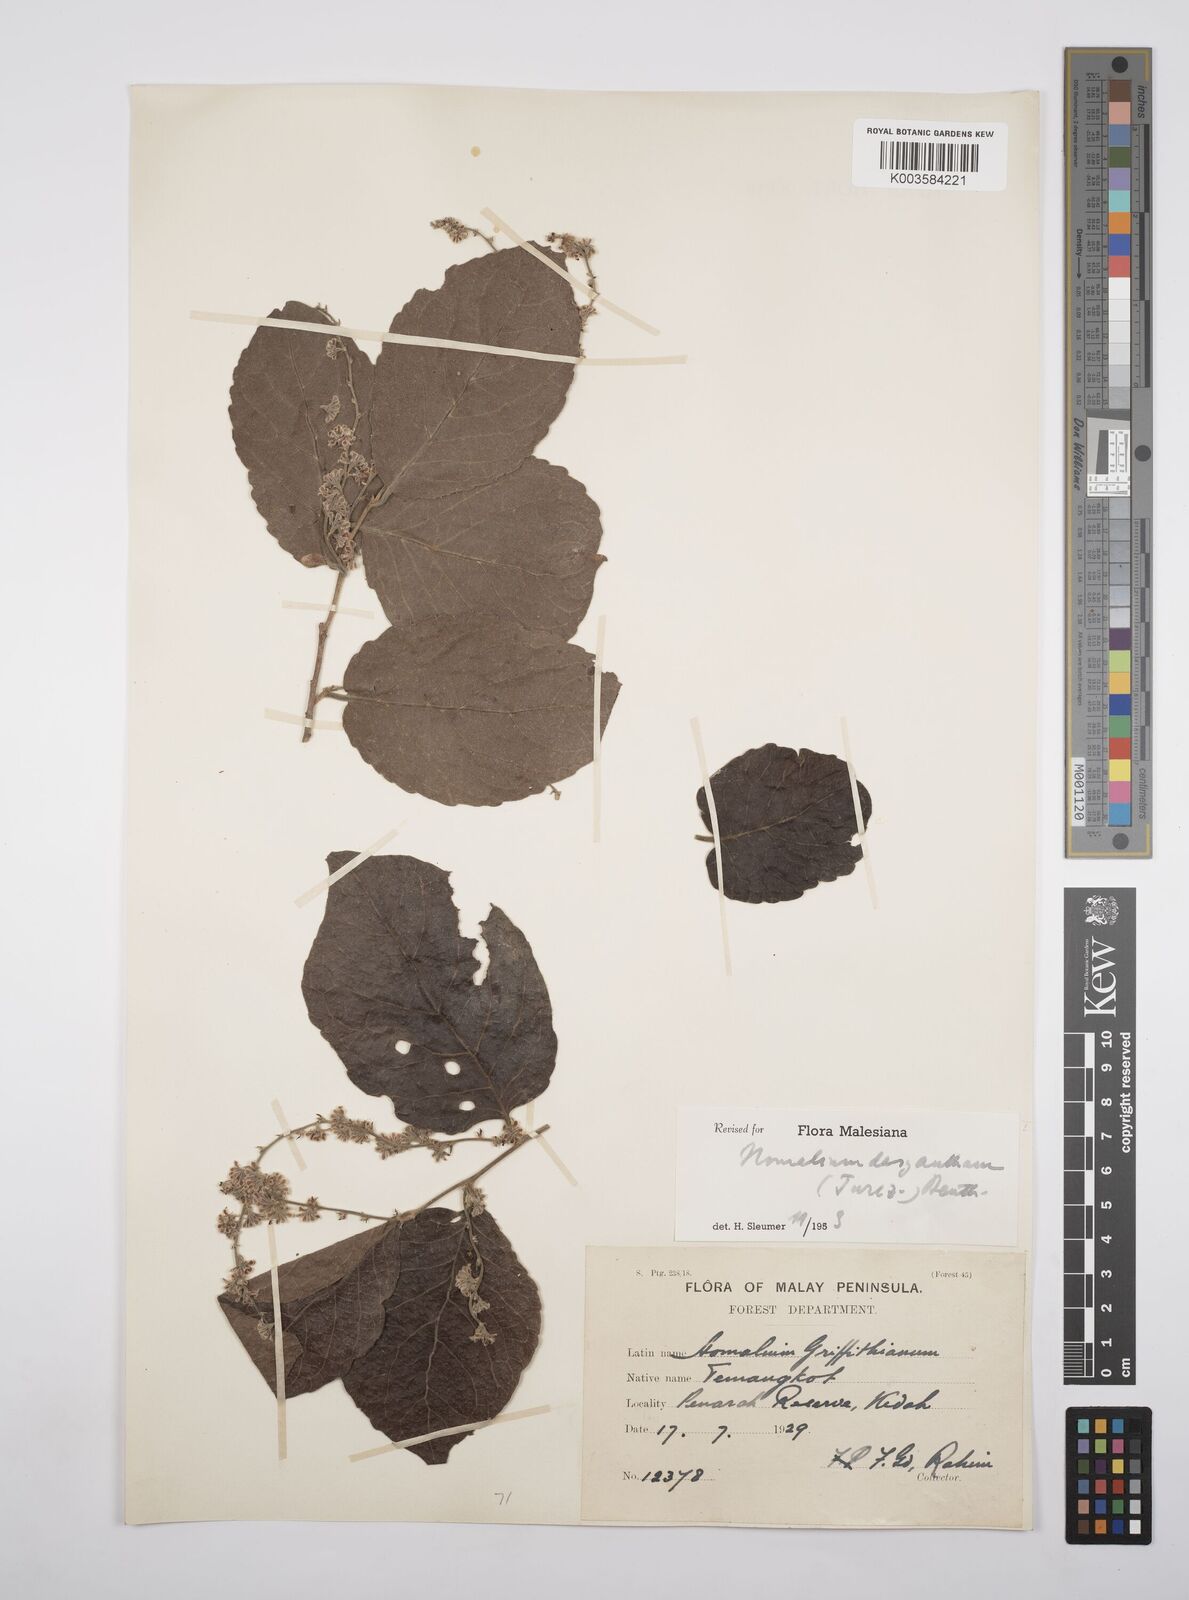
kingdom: Plantae
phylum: Tracheophyta
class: Magnoliopsida
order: Malpighiales
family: Salicaceae
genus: Homalium
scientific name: Homalium dasyanthum
